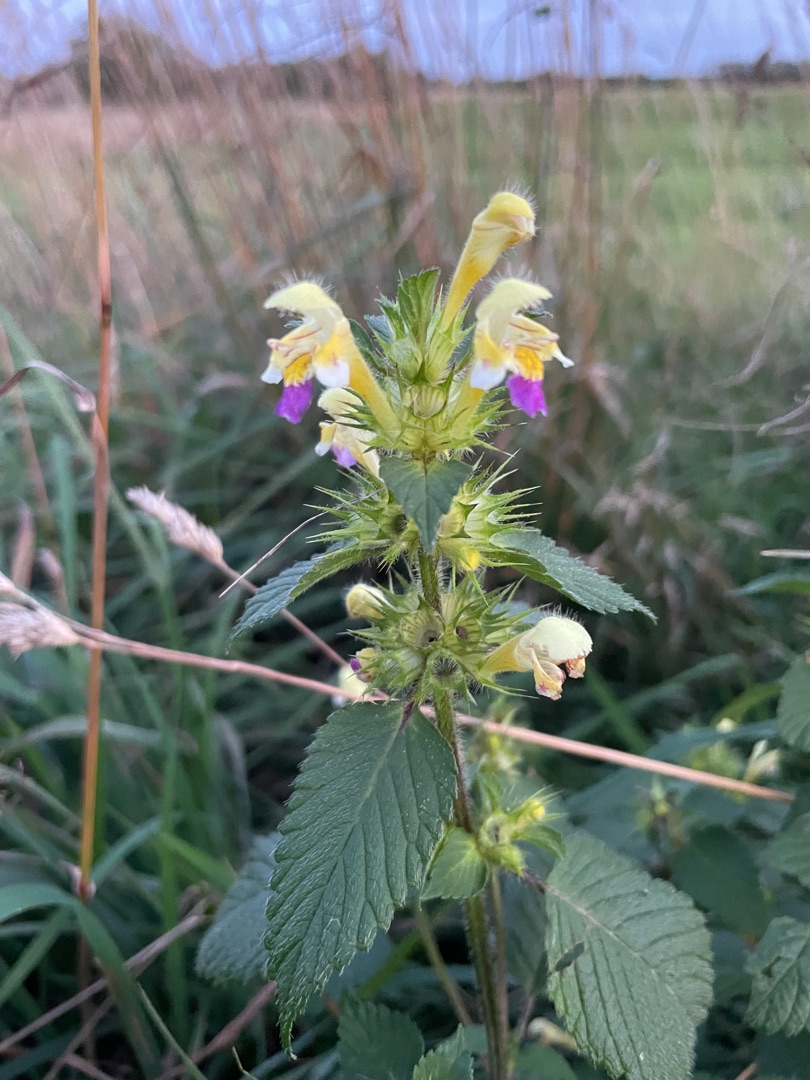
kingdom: Plantae
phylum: Tracheophyta
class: Magnoliopsida
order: Lamiales
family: Lamiaceae
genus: Galeopsis
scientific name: Galeopsis speciosa
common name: Hamp-hanekro
